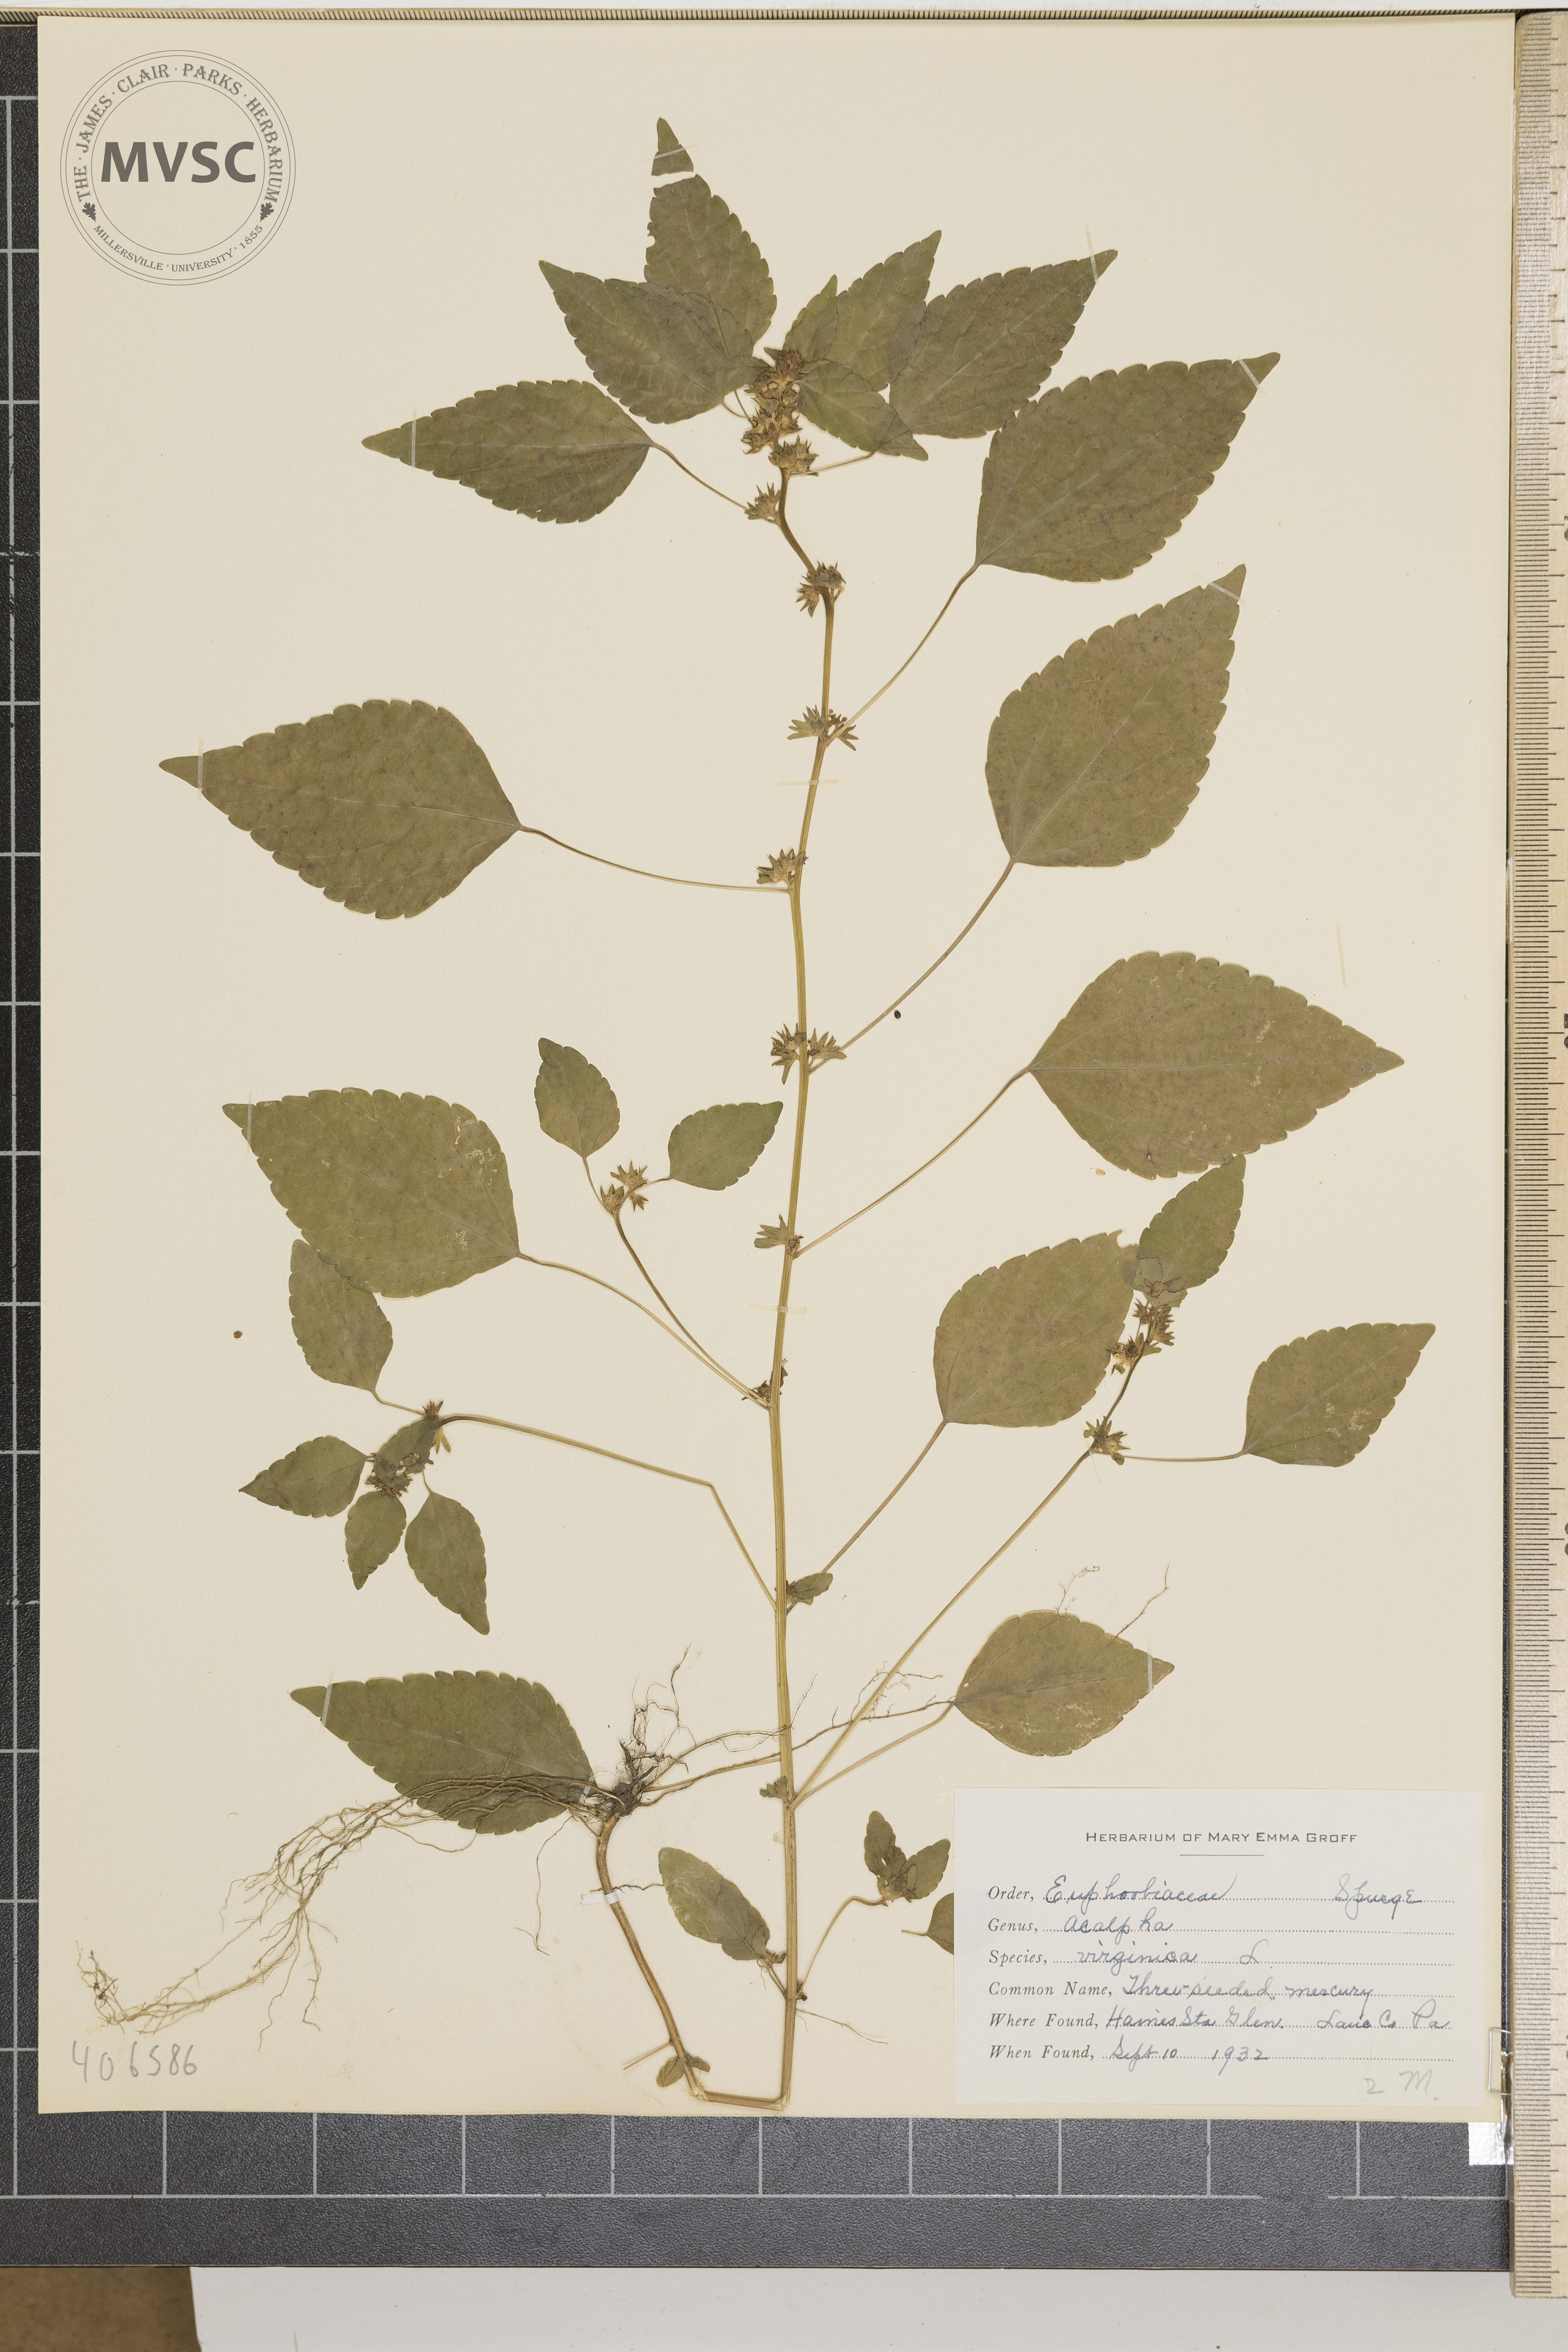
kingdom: Plantae
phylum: Tracheophyta
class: Magnoliopsida
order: Malpighiales
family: Euphorbiaceae
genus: Acalypha
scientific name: Acalypha virginica
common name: Three-seeded Mercury
